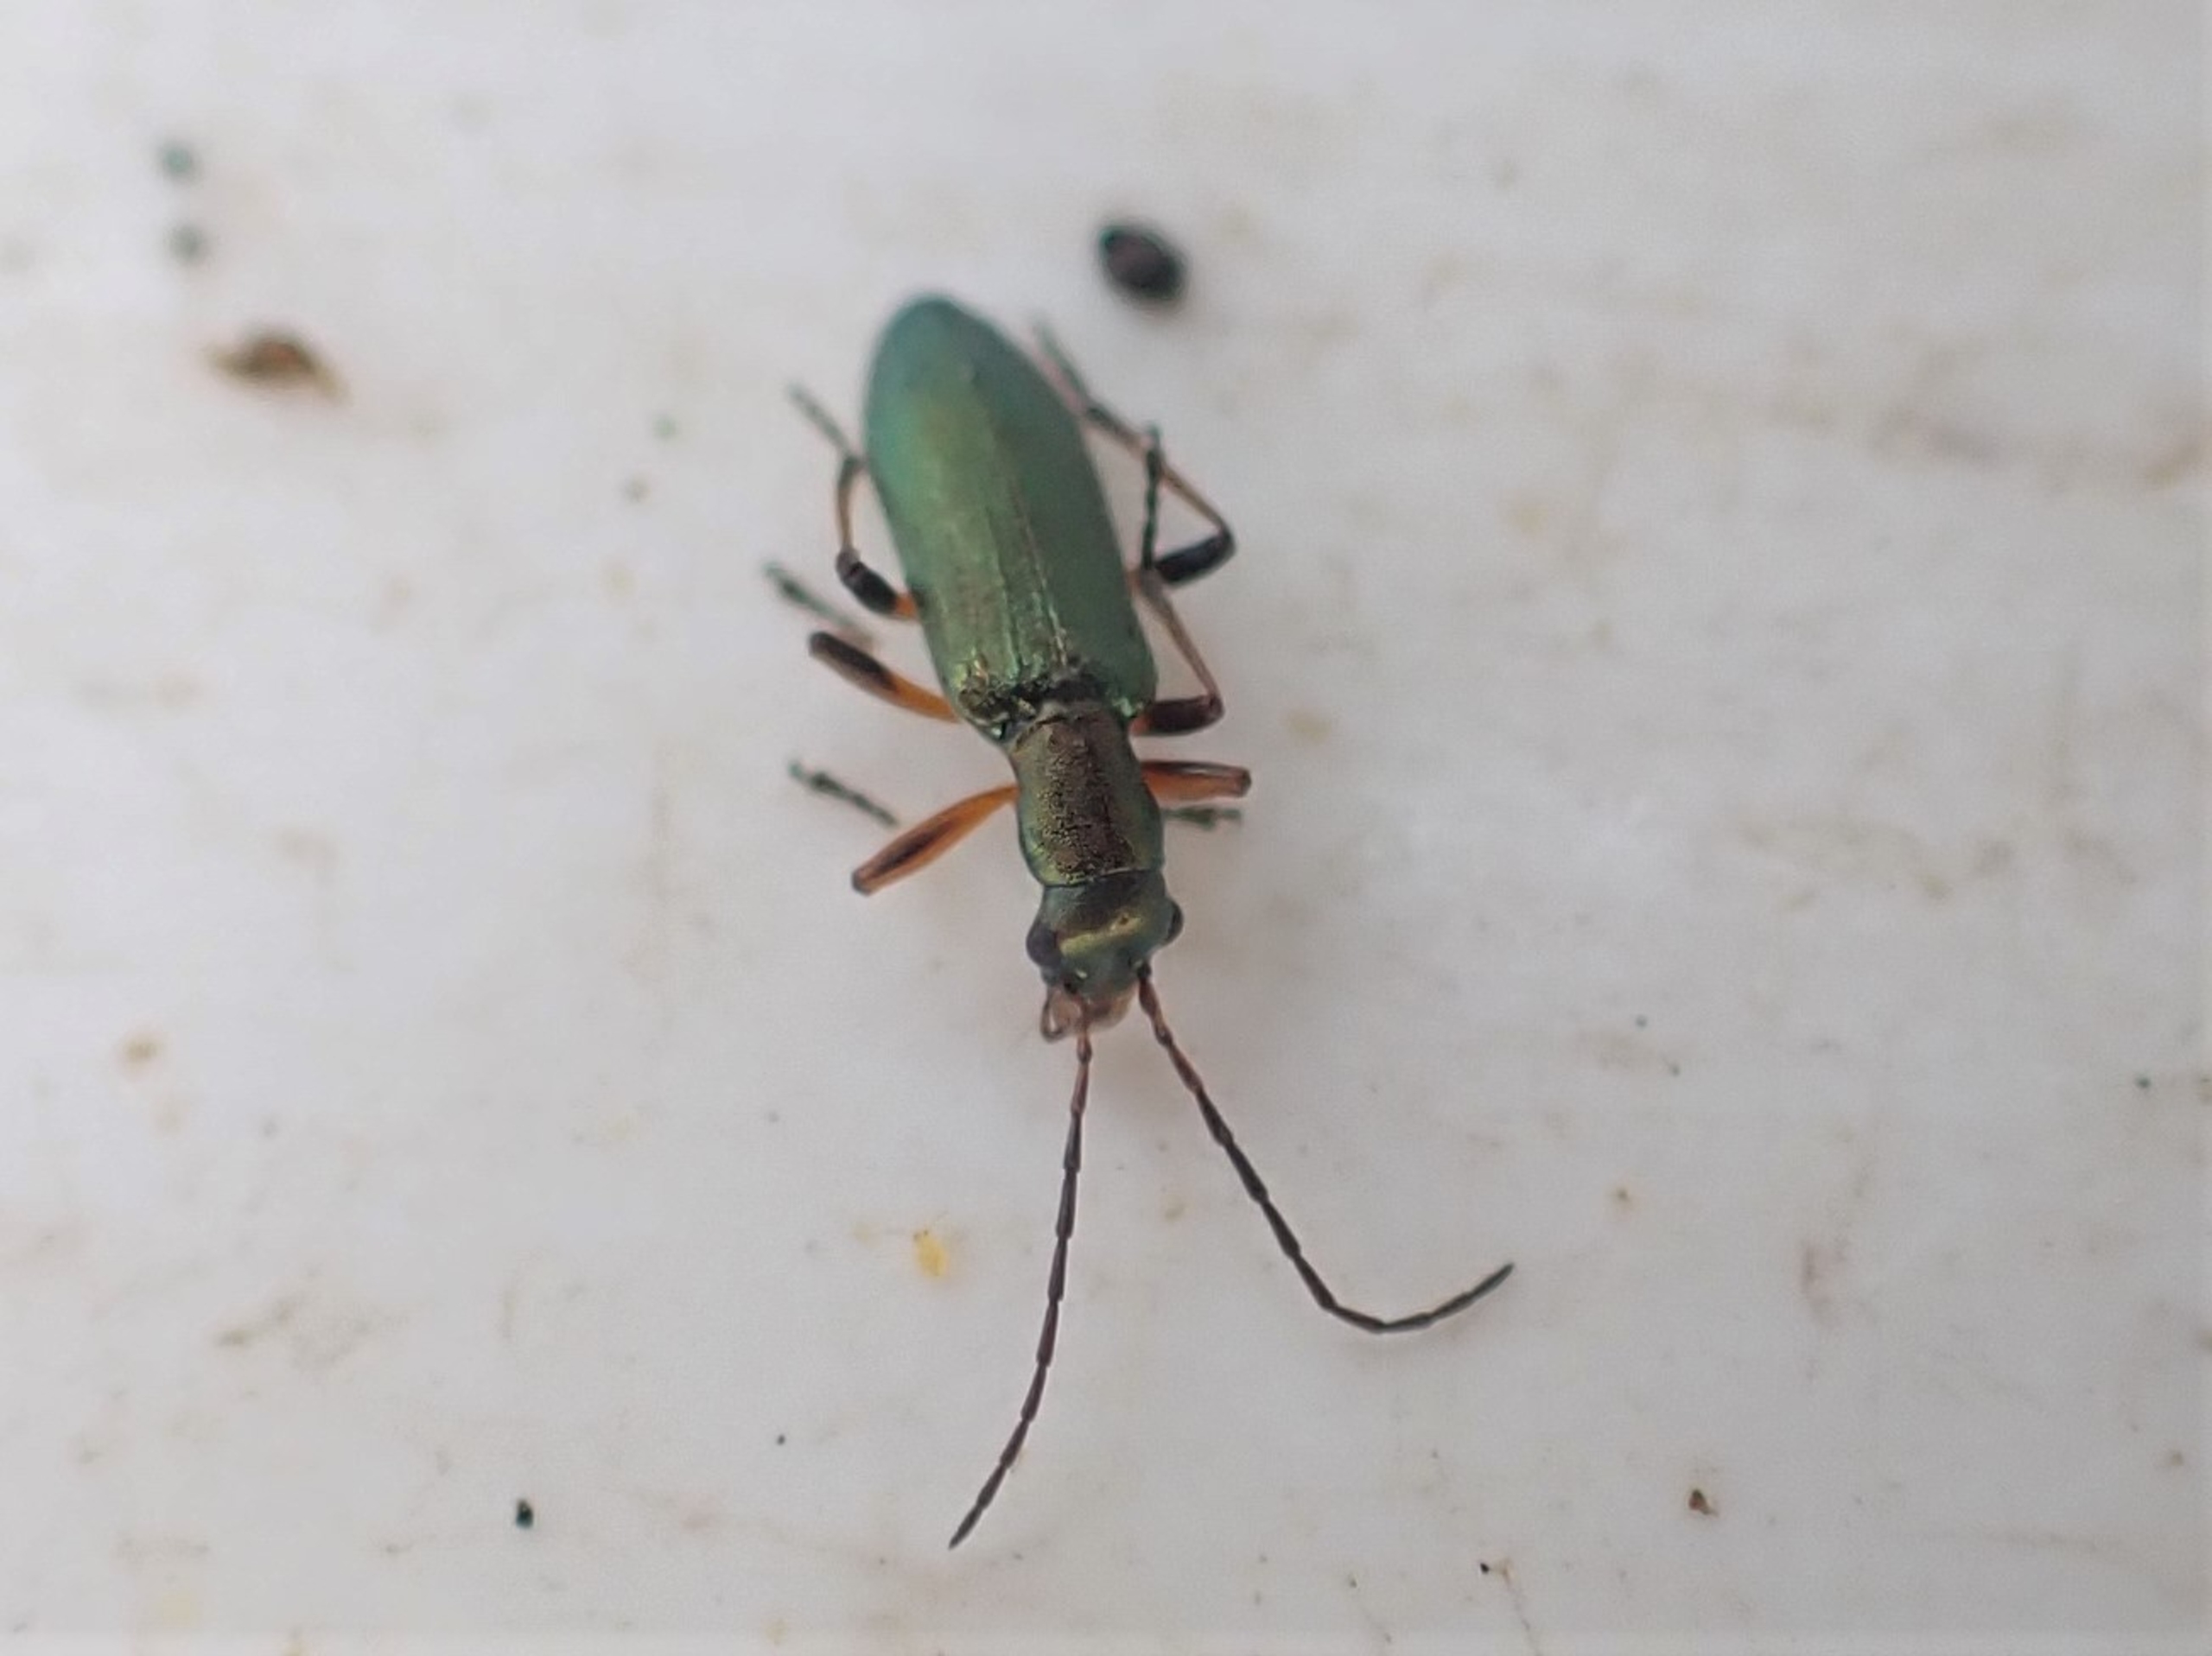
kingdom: Animalia
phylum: Arthropoda
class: Insecta
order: Coleoptera
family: Oedemeridae
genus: Chrysanthia
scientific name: Chrysanthia geniculata
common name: Grøn solbille
